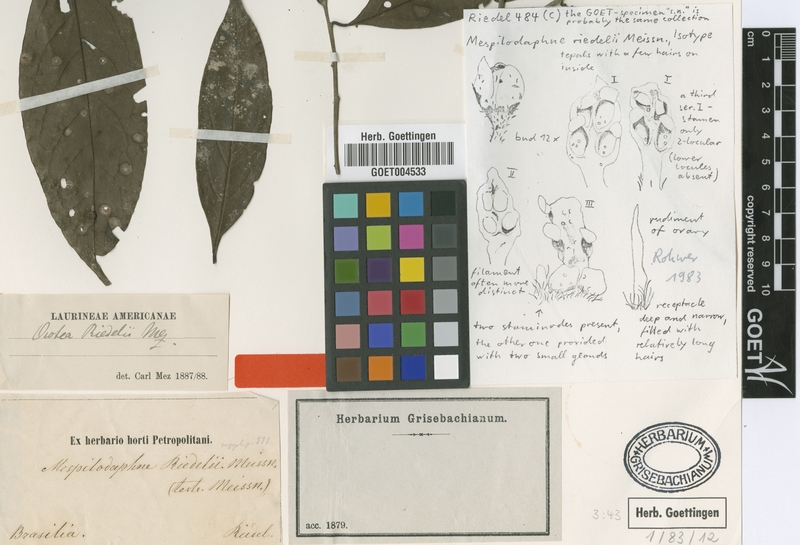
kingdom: Plantae
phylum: Tracheophyta
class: Magnoliopsida
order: Laurales
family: Lauraceae
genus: Ocotea
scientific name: Ocotea dispersa
